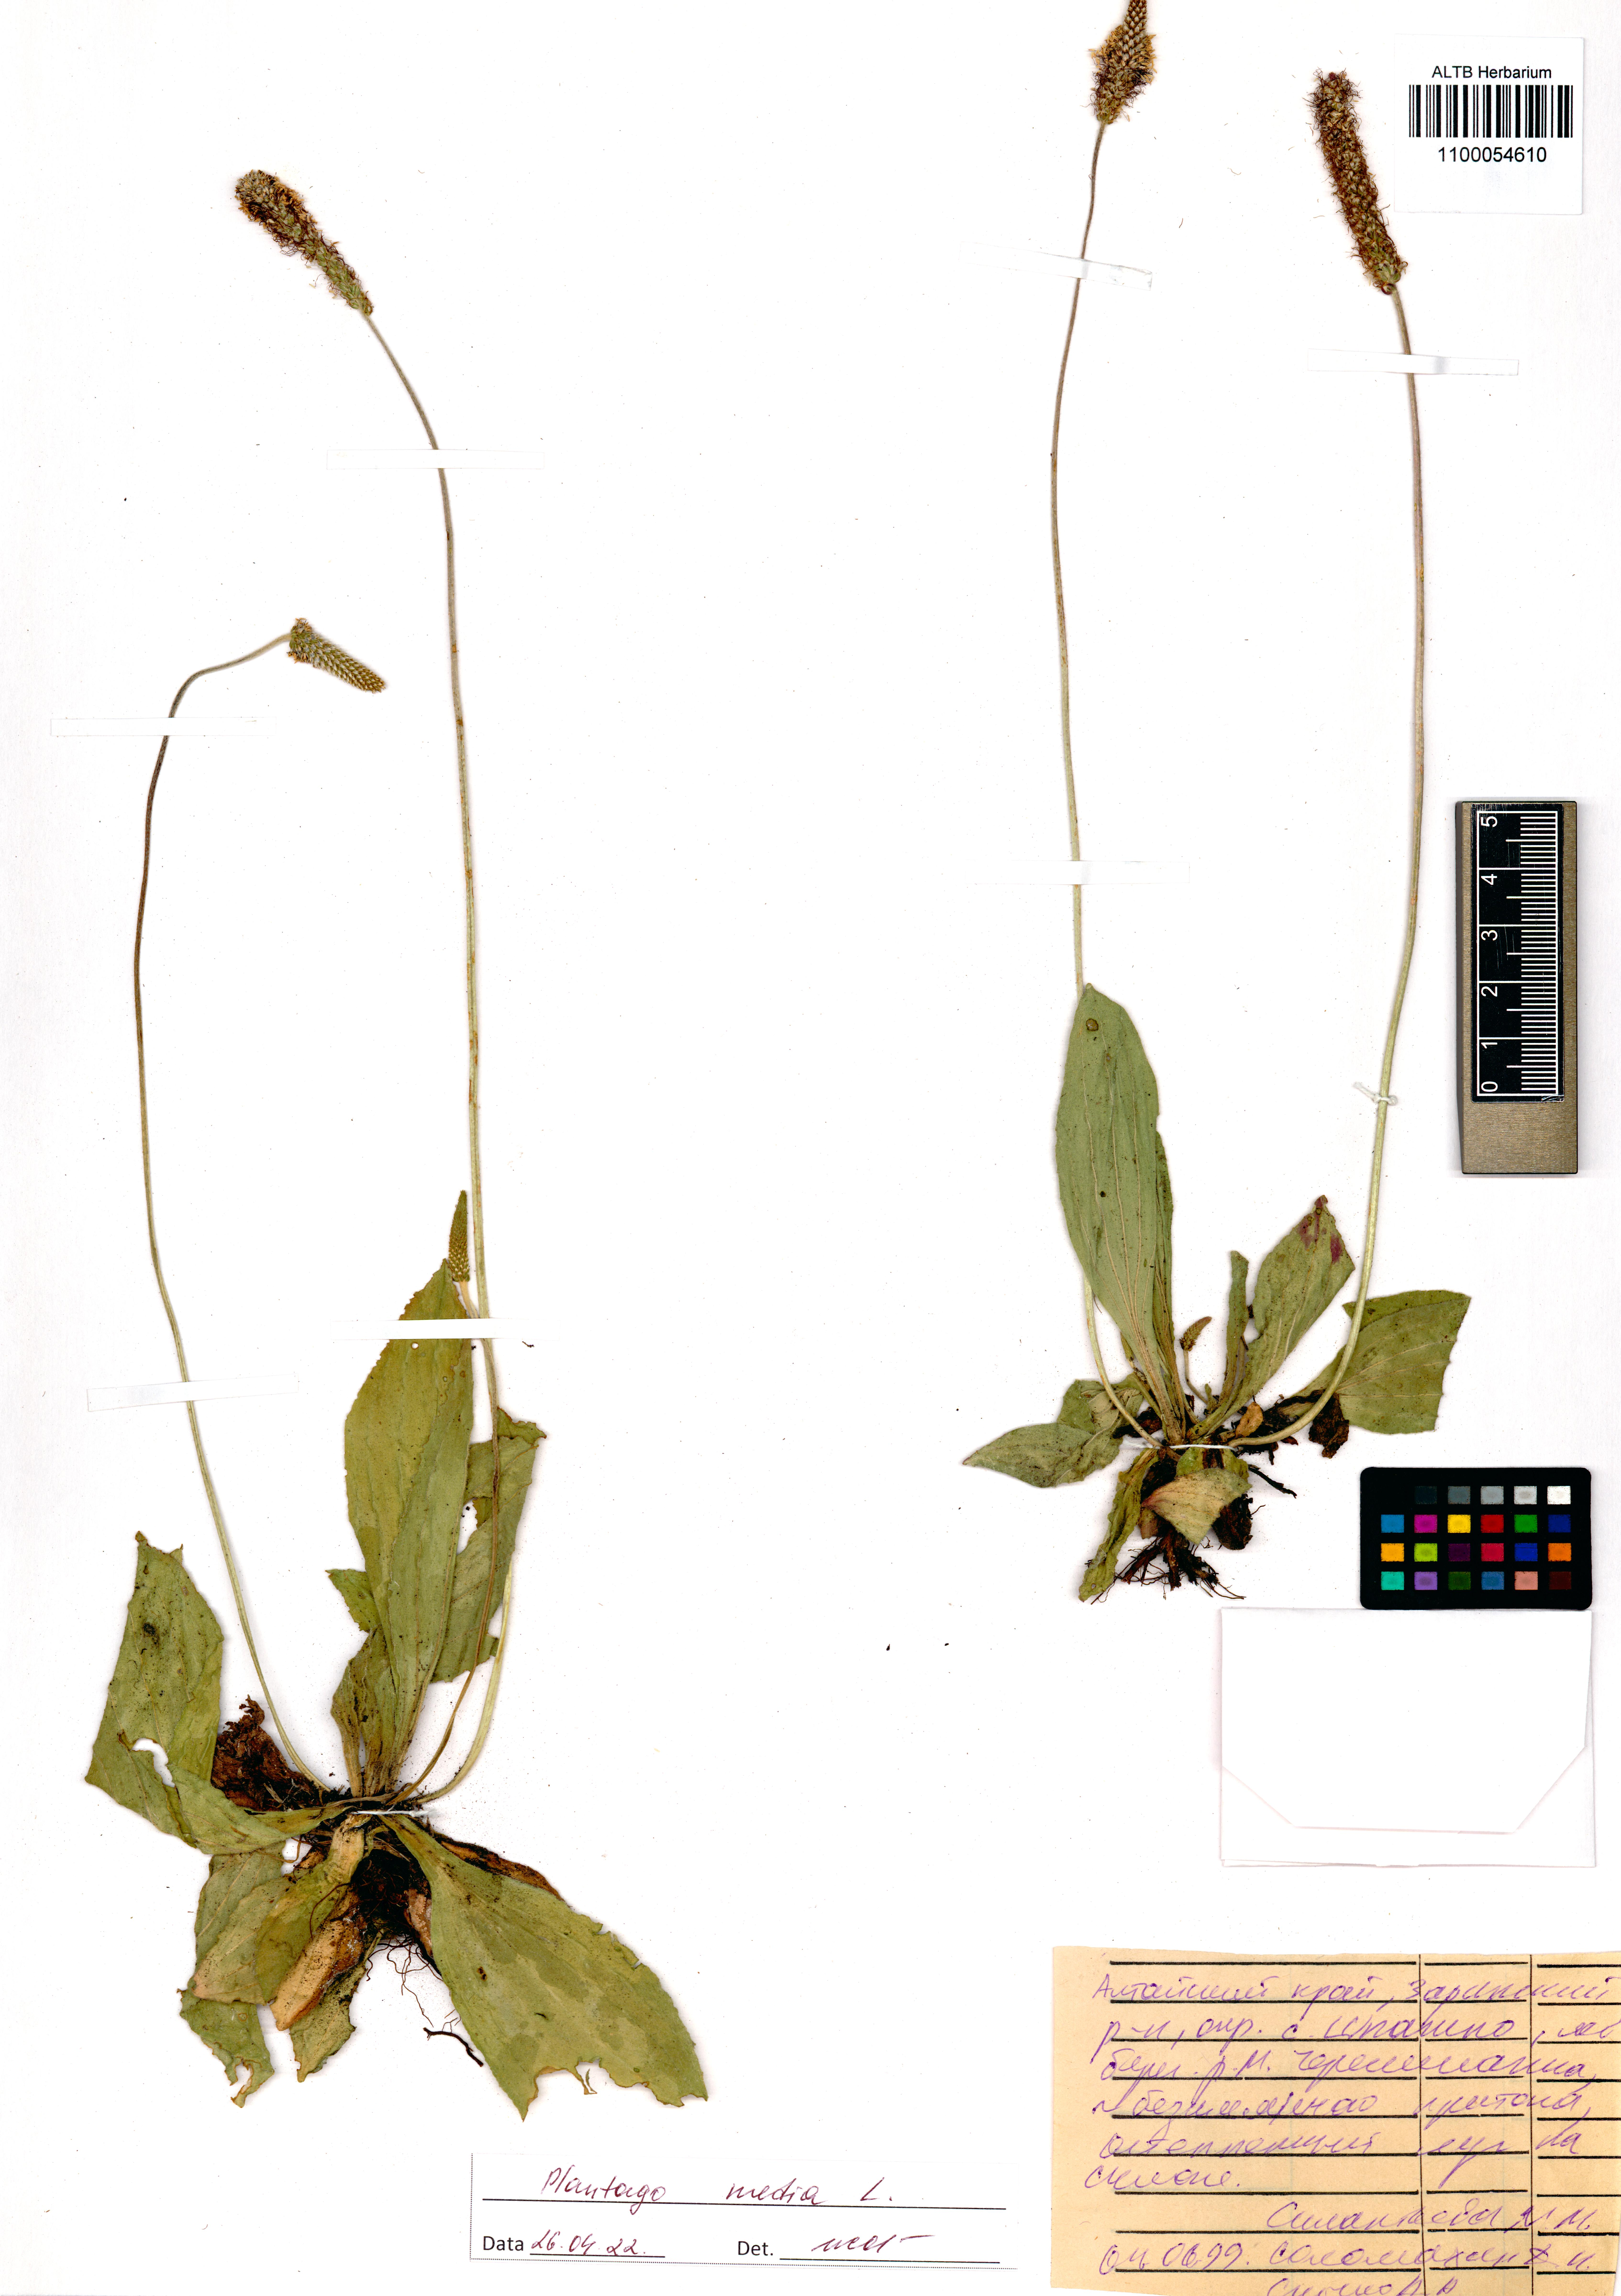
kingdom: Plantae
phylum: Tracheophyta
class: Magnoliopsida
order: Lamiales
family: Plantaginaceae
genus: Plantago
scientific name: Plantago media
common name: Hoary plantain
